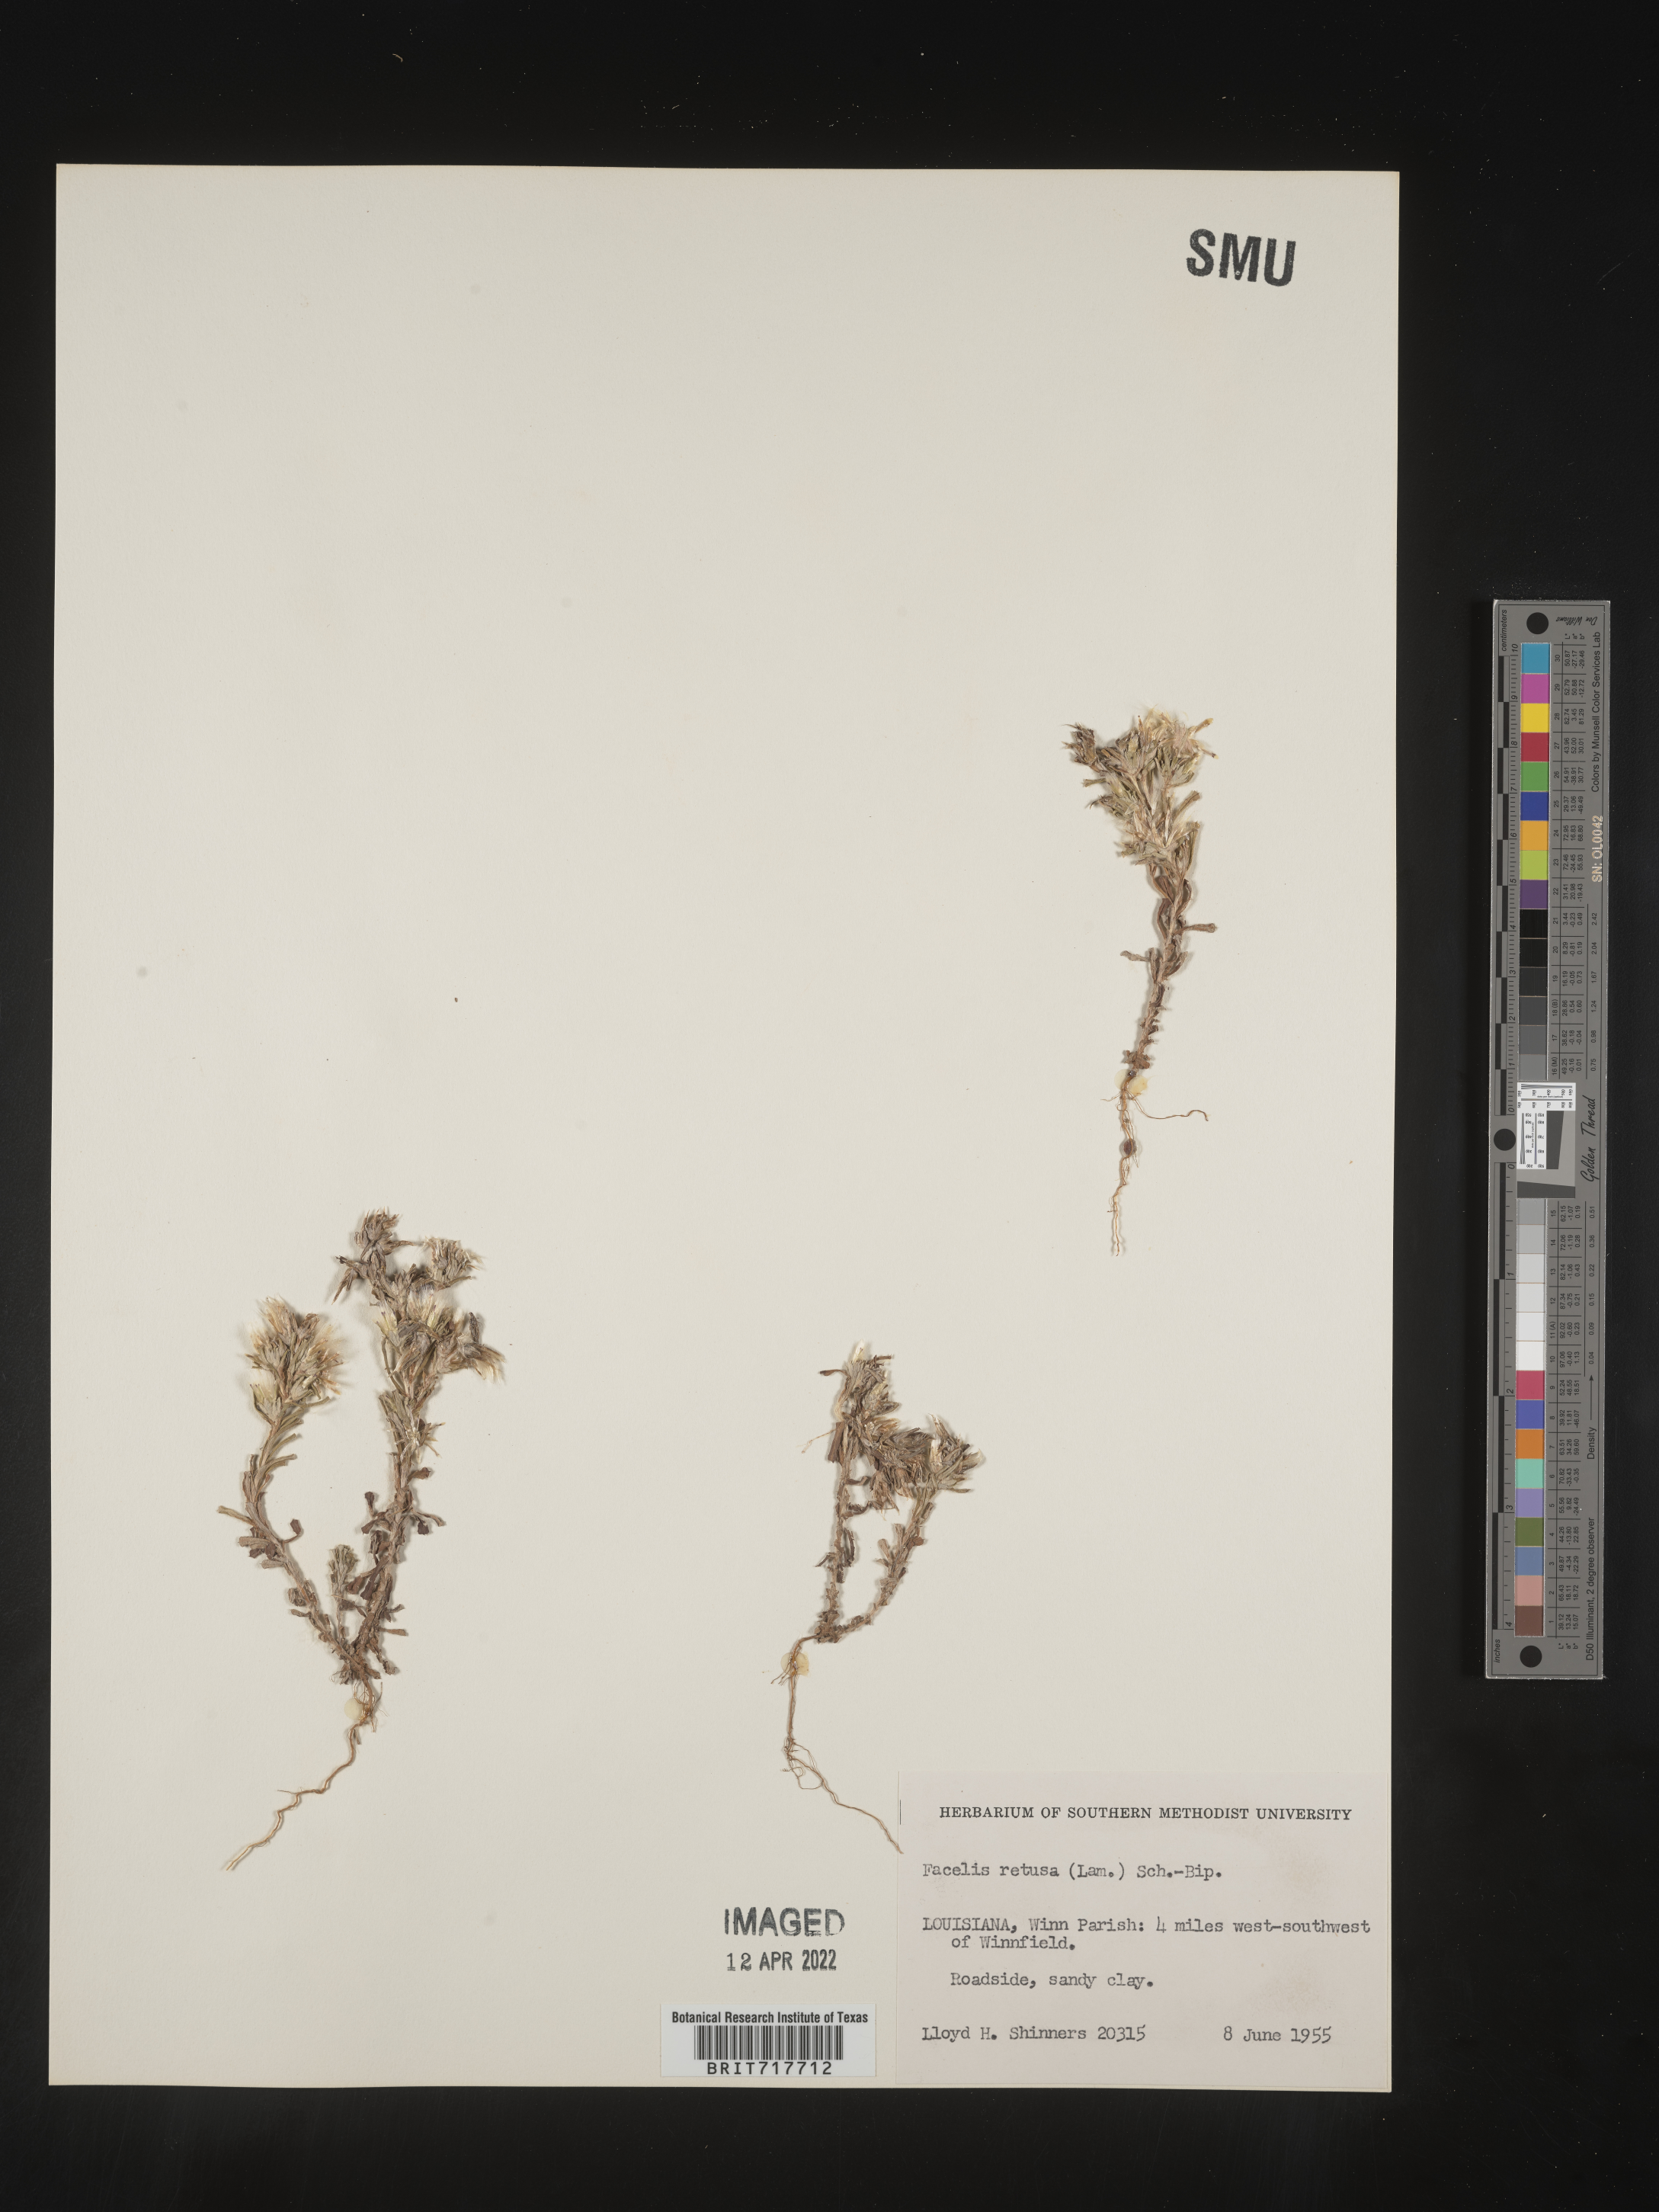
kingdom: Plantae
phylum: Tracheophyta
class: Magnoliopsida
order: Asterales
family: Asteraceae
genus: Facelis
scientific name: Facelis retusa
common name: Annual trampweed
